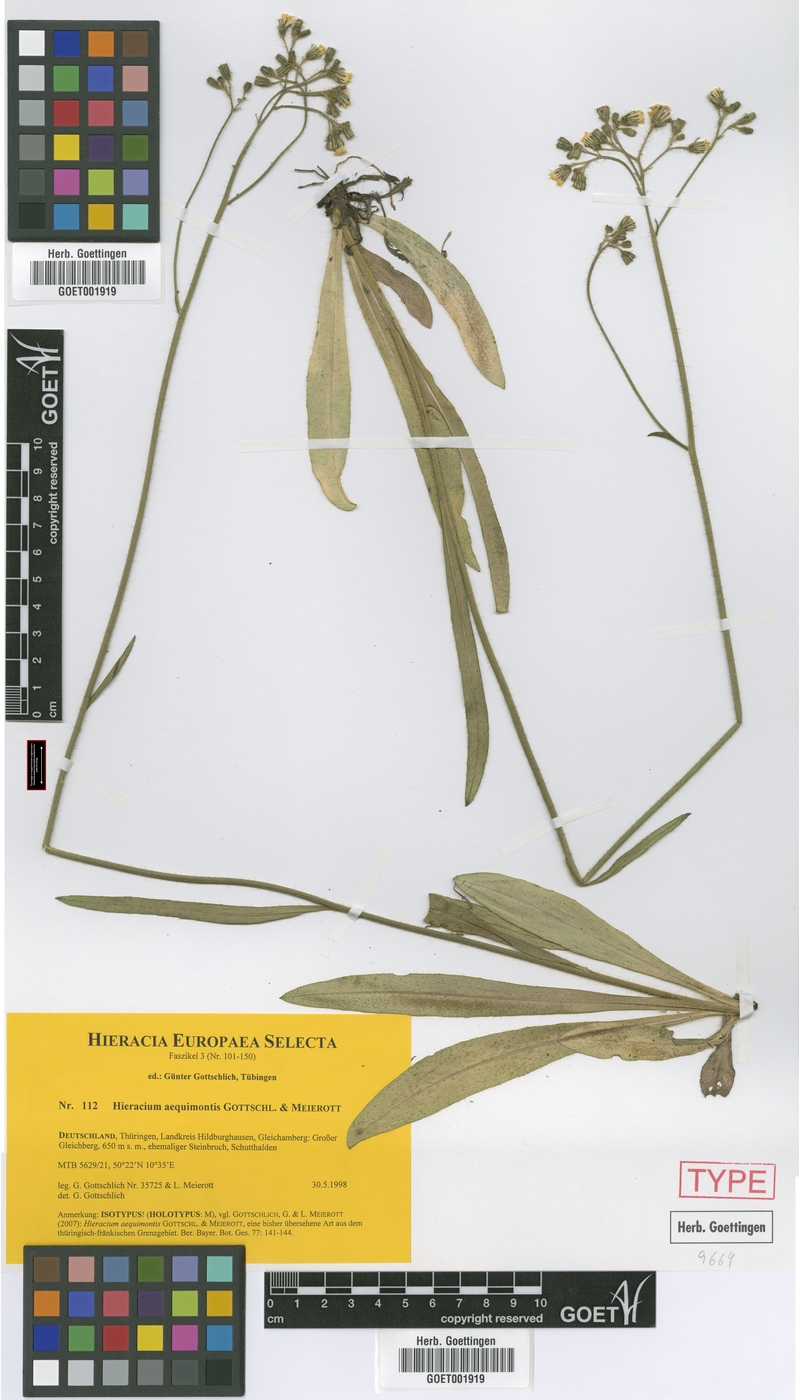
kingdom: Plantae
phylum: Tracheophyta
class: Magnoliopsida
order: Asterales
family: Asteraceae
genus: Pilosella
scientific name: Pilosella aequimontis
